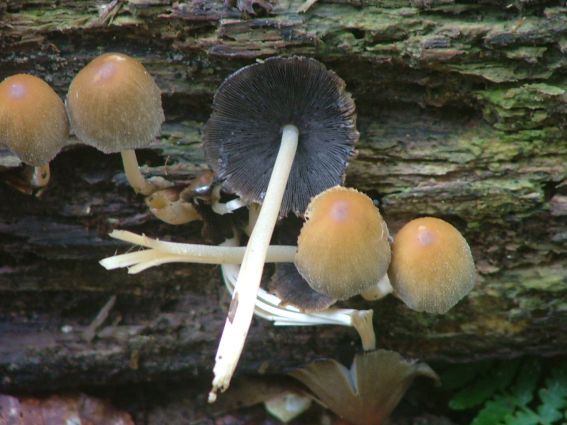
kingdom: Fungi
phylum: Basidiomycota
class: Agaricomycetes
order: Agaricales
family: Psathyrellaceae
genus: Psathyrella
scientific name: Psathyrella piluliformis
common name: lysstokket mørkhat
